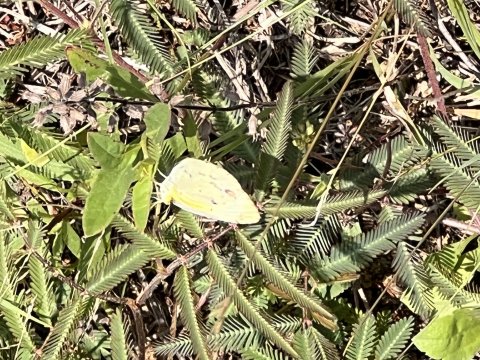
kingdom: Animalia
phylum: Arthropoda
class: Insecta
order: Lepidoptera
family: Pieridae
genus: Pyrisitia
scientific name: Pyrisitia lisa
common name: Little Yellow
